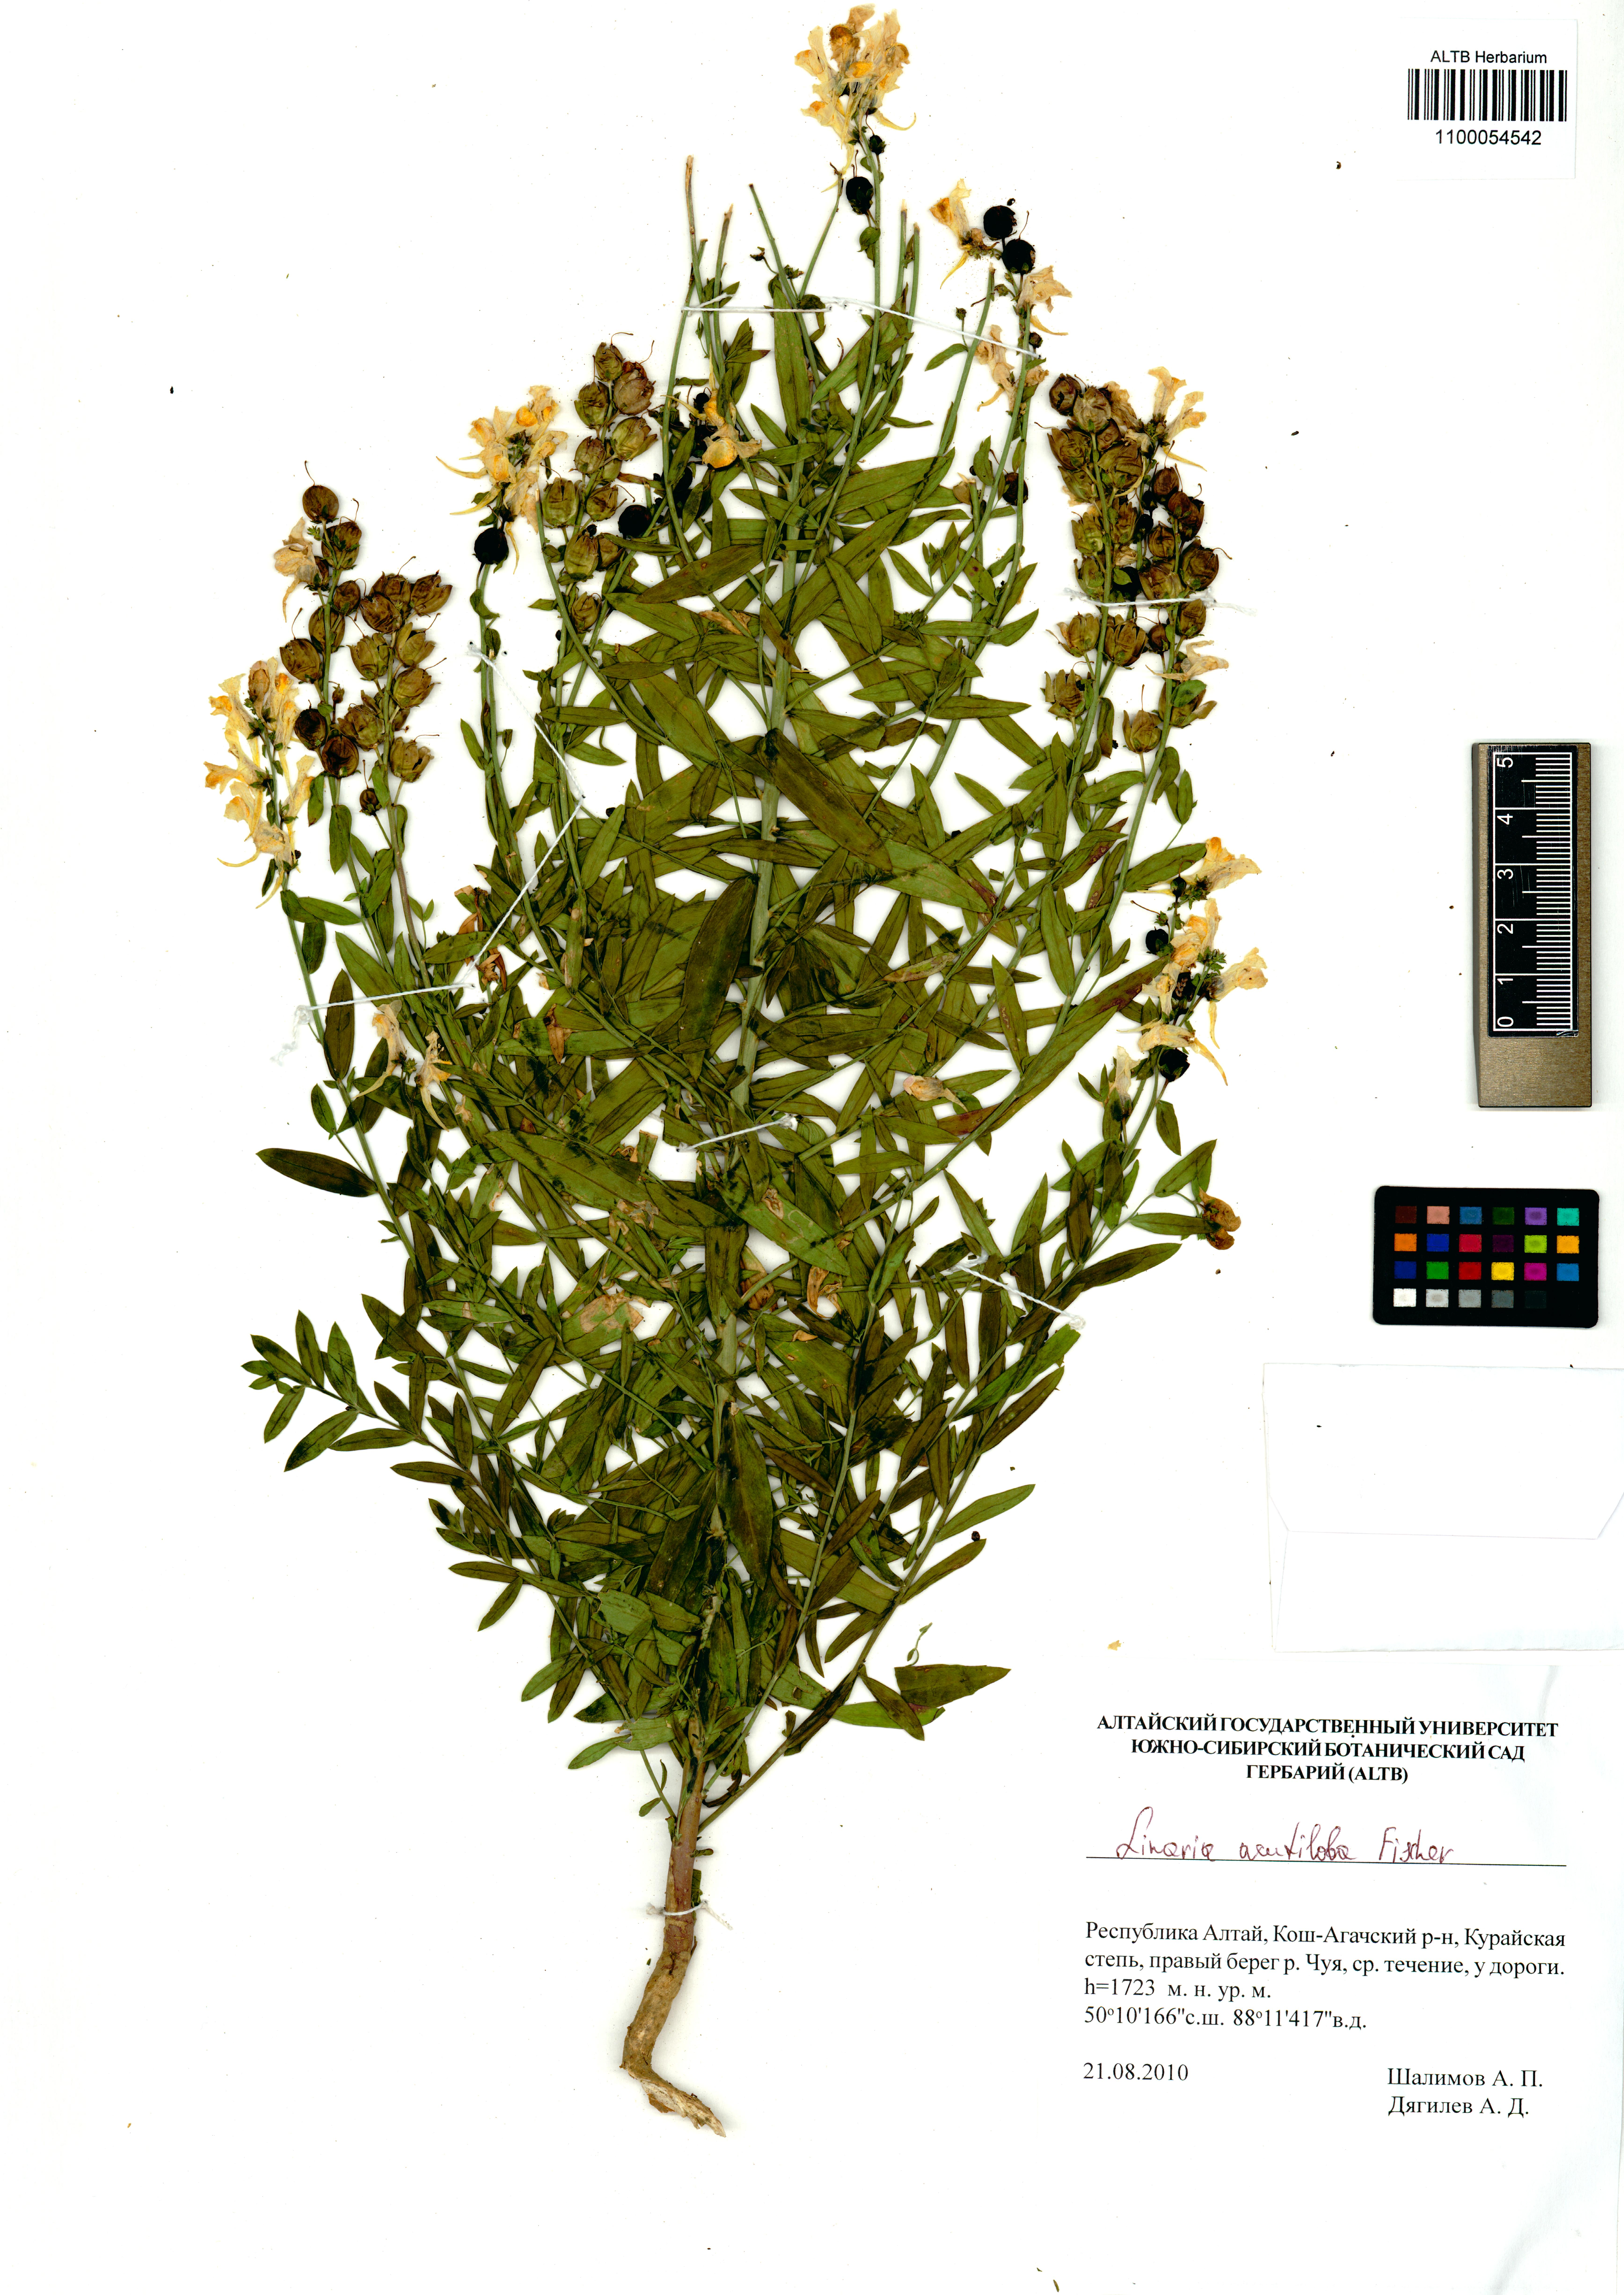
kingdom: Plantae
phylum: Tracheophyta
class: Magnoliopsida
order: Lamiales
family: Plantaginaceae
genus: Linaria
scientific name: Linaria acutiloba
